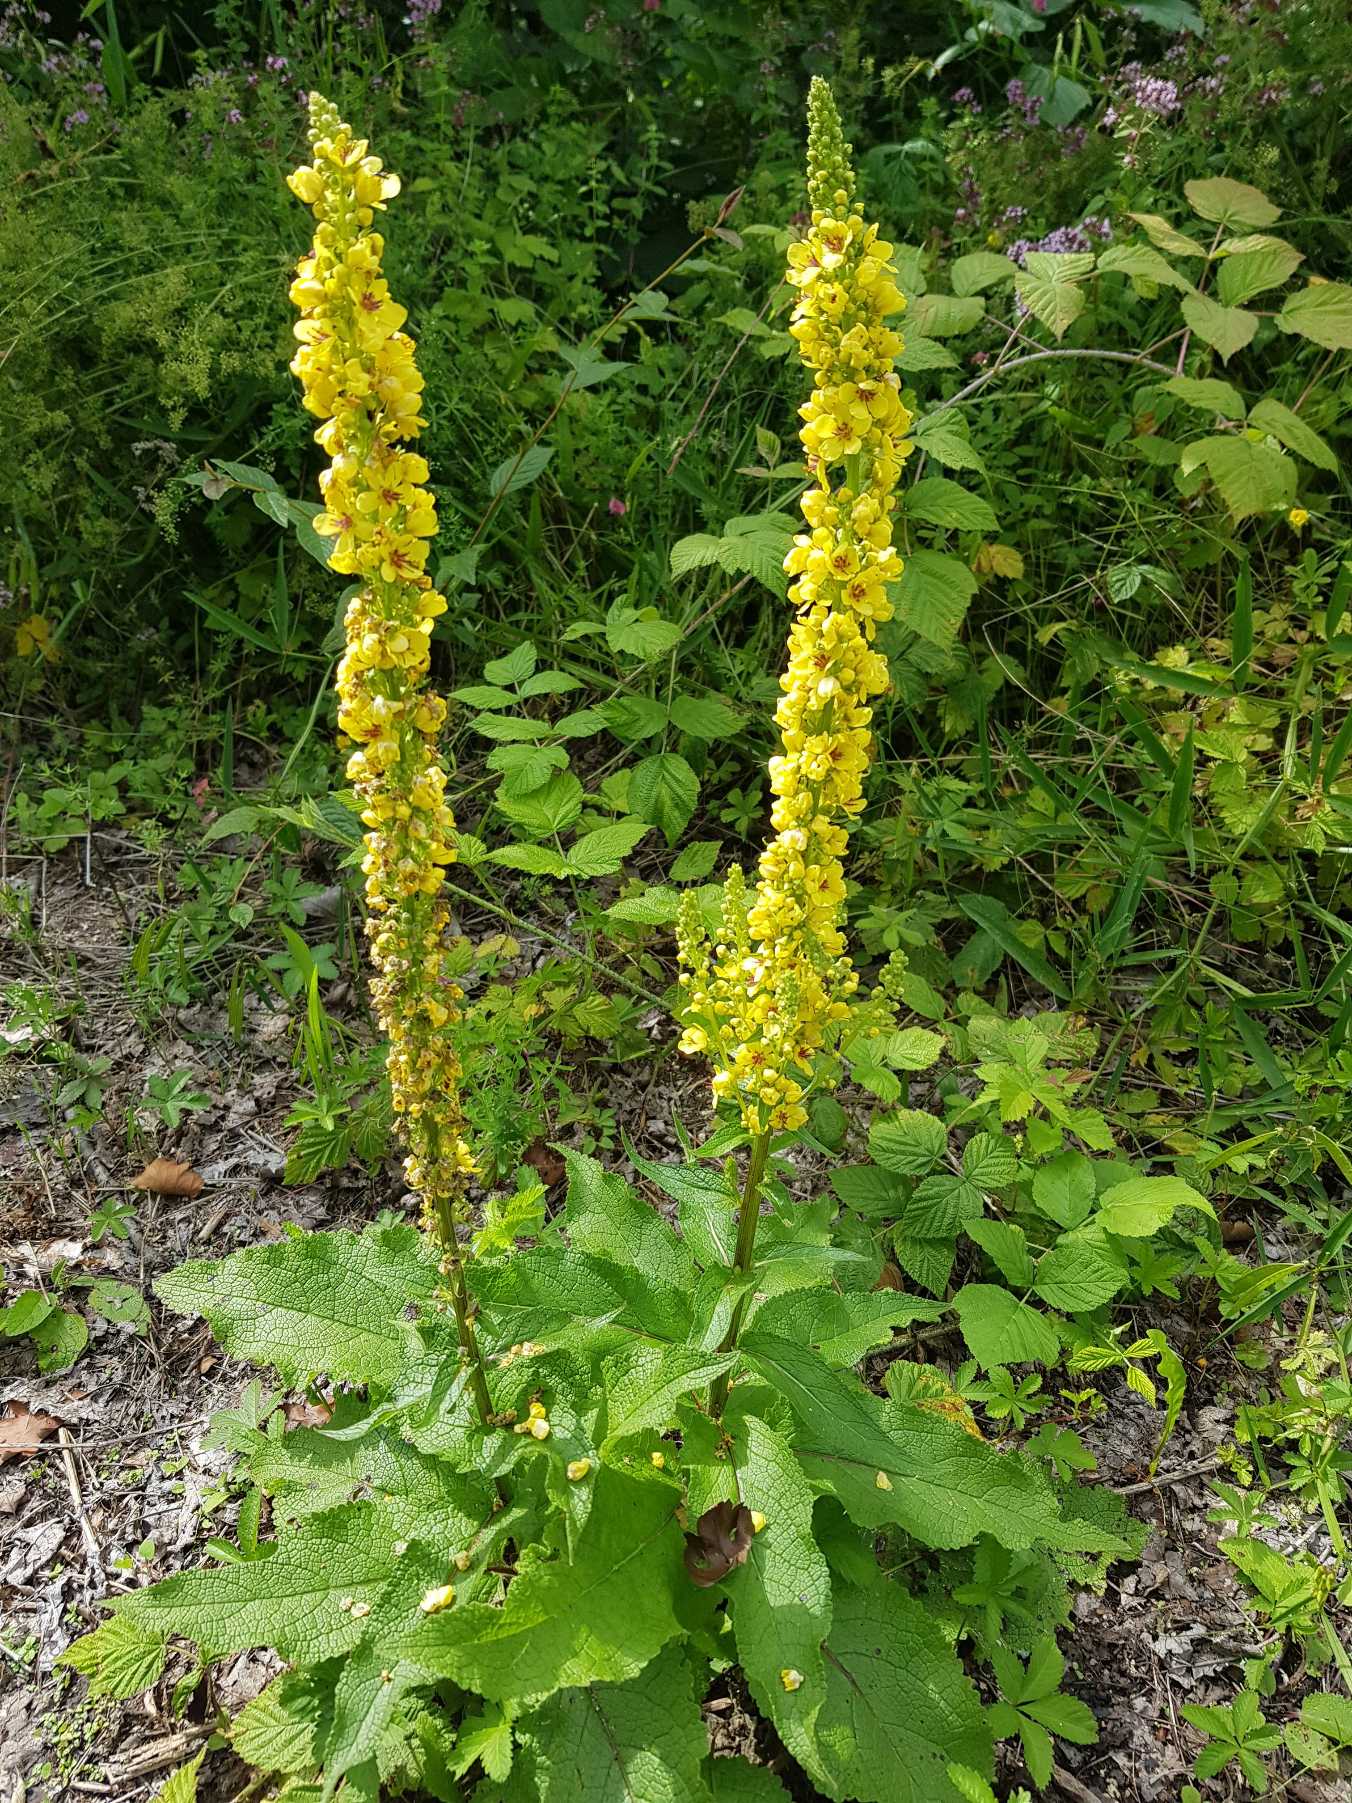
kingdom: Plantae
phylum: Tracheophyta
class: Magnoliopsida
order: Lamiales
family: Scrophulariaceae
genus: Verbascum
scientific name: Verbascum nigrum
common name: Mørk kongelys
